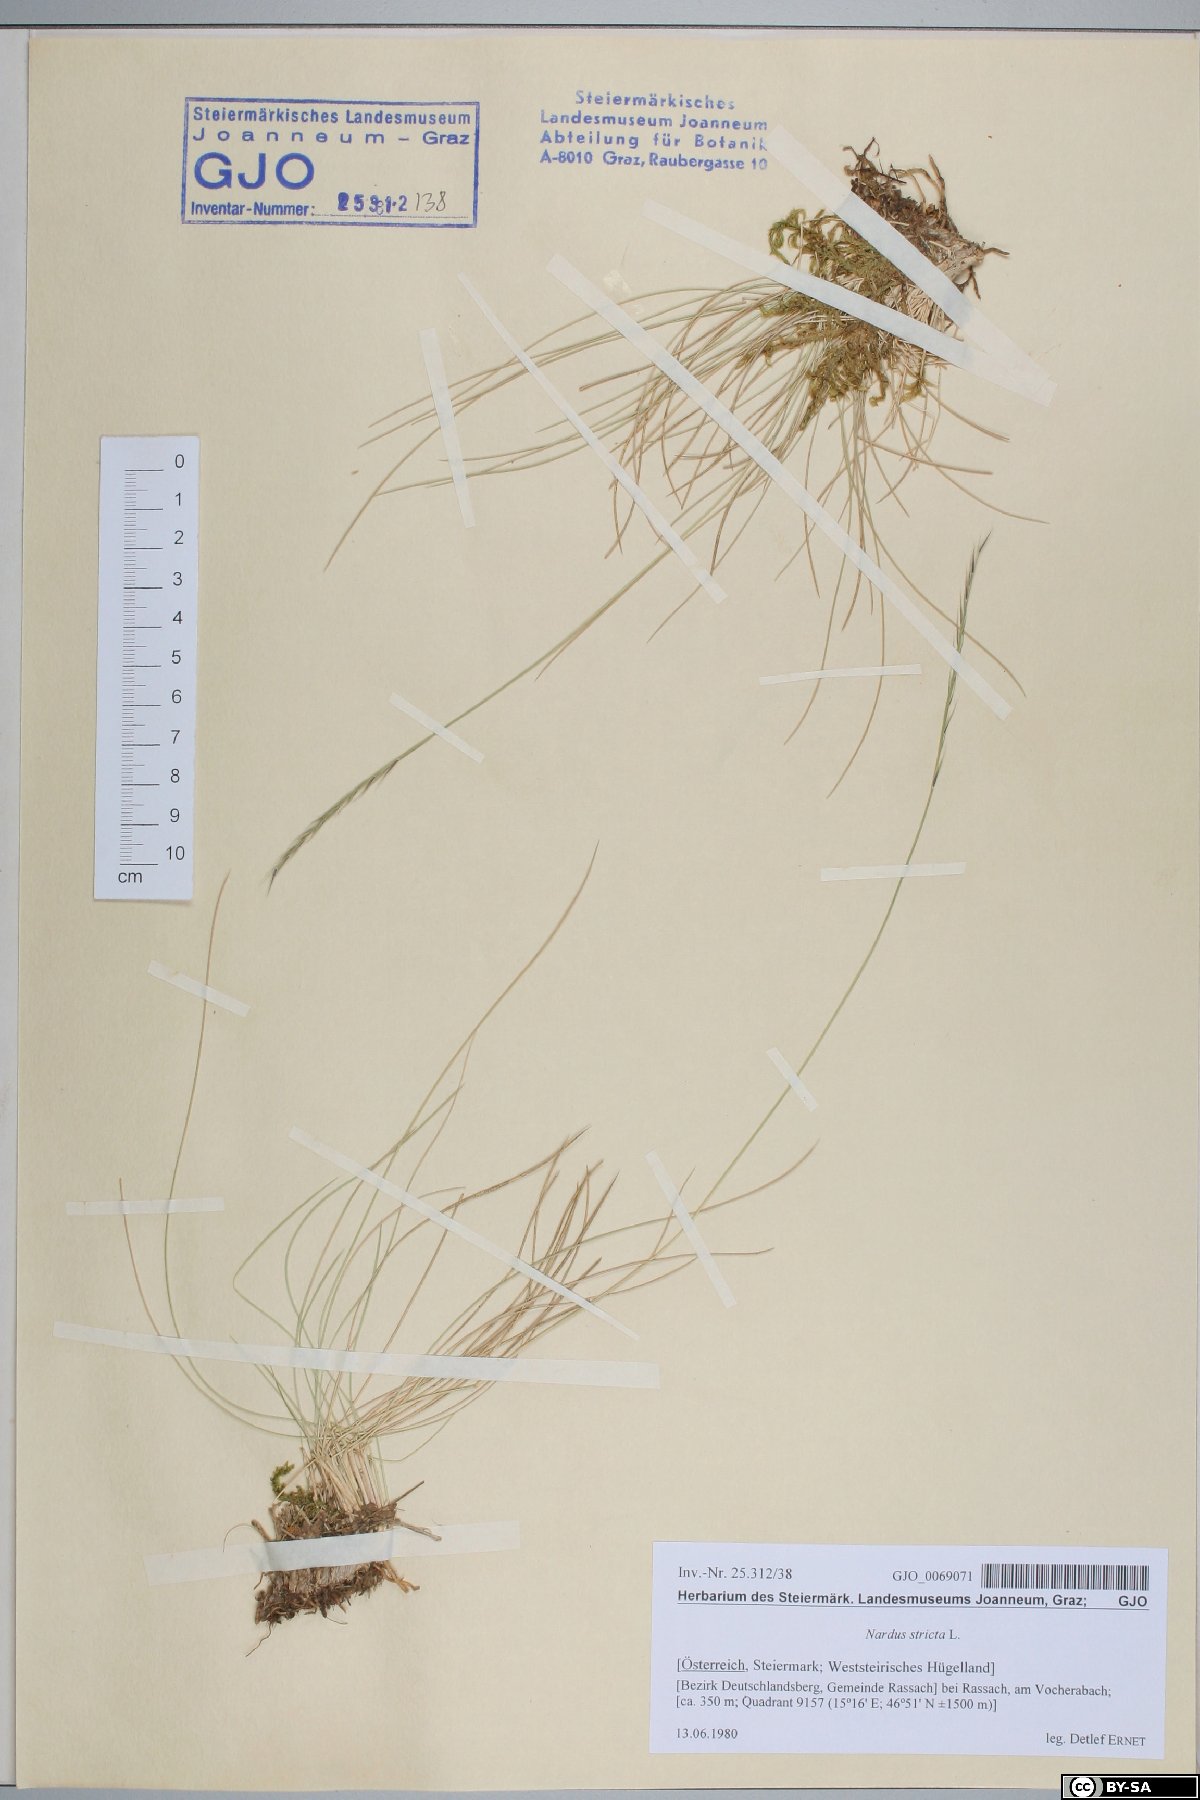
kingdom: Plantae
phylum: Tracheophyta
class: Liliopsida
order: Poales
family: Poaceae
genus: Nardus
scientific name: Nardus stricta
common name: Mat-grass
